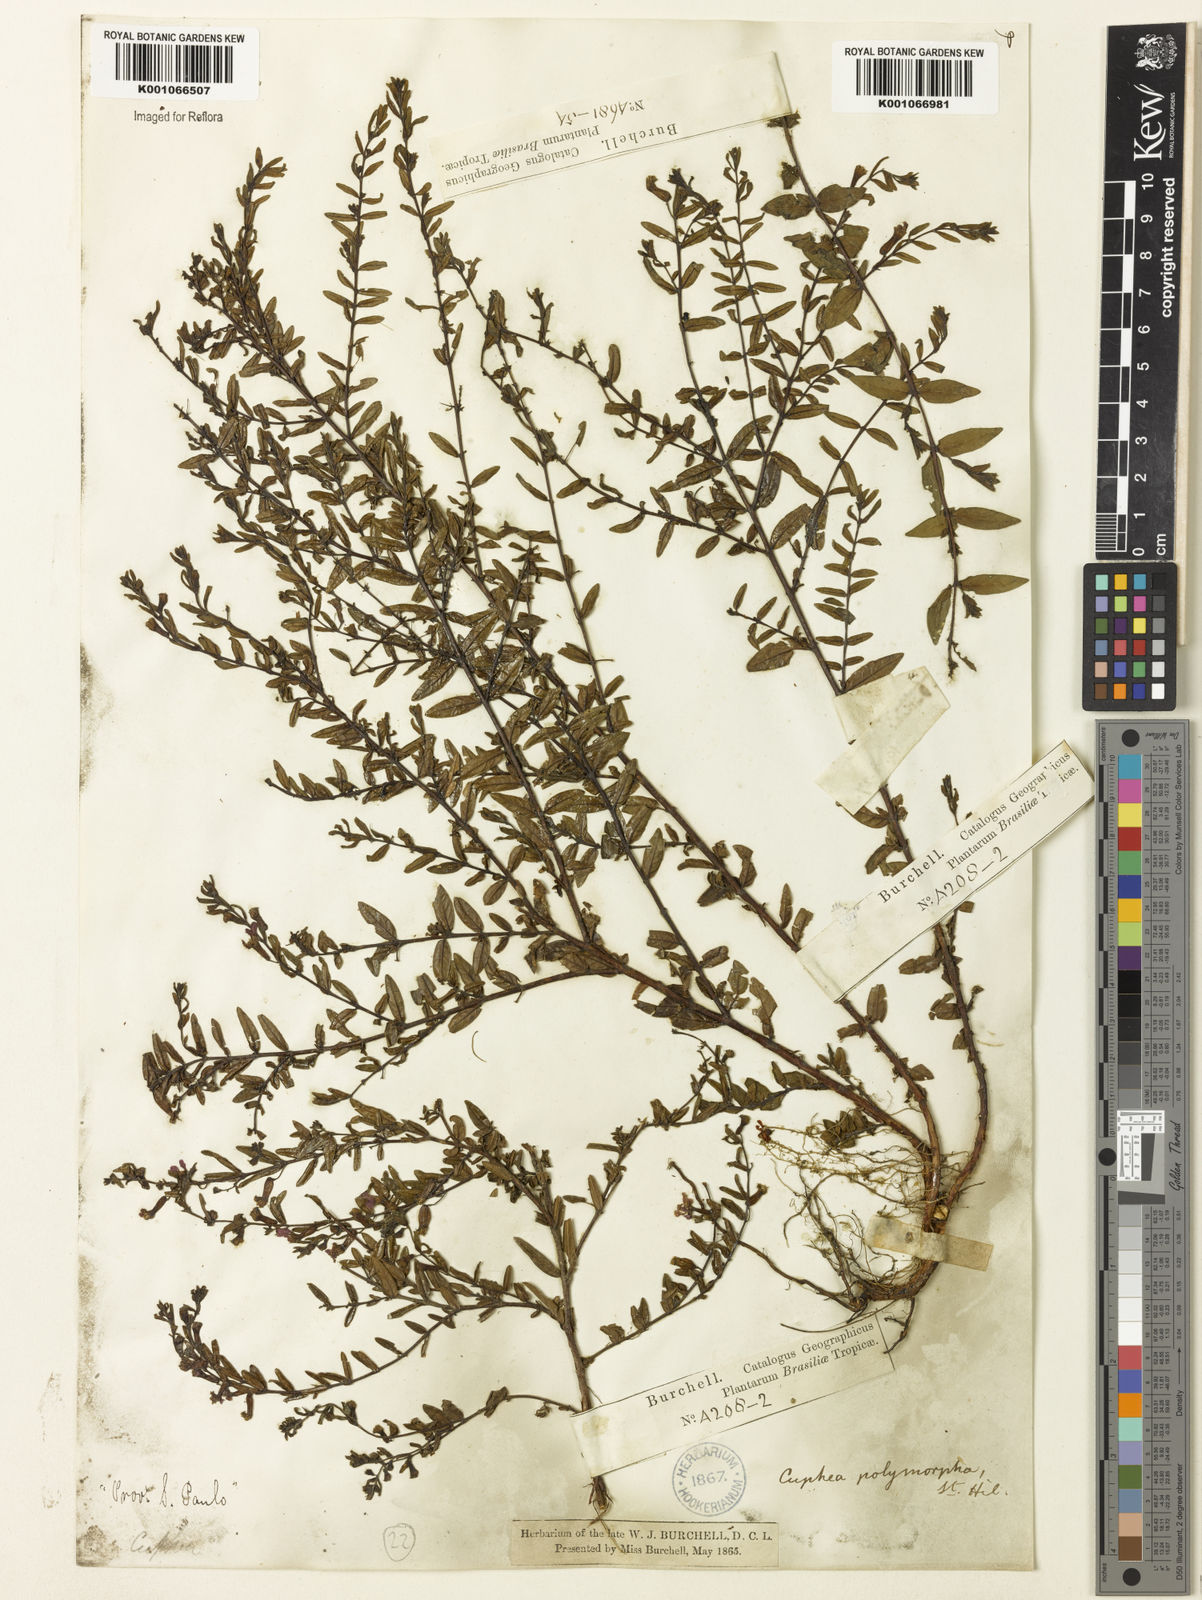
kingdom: Plantae
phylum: Tracheophyta
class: Magnoliopsida
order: Myrtales
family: Lythraceae
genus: Cuphea
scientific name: Cuphea polymorpha
